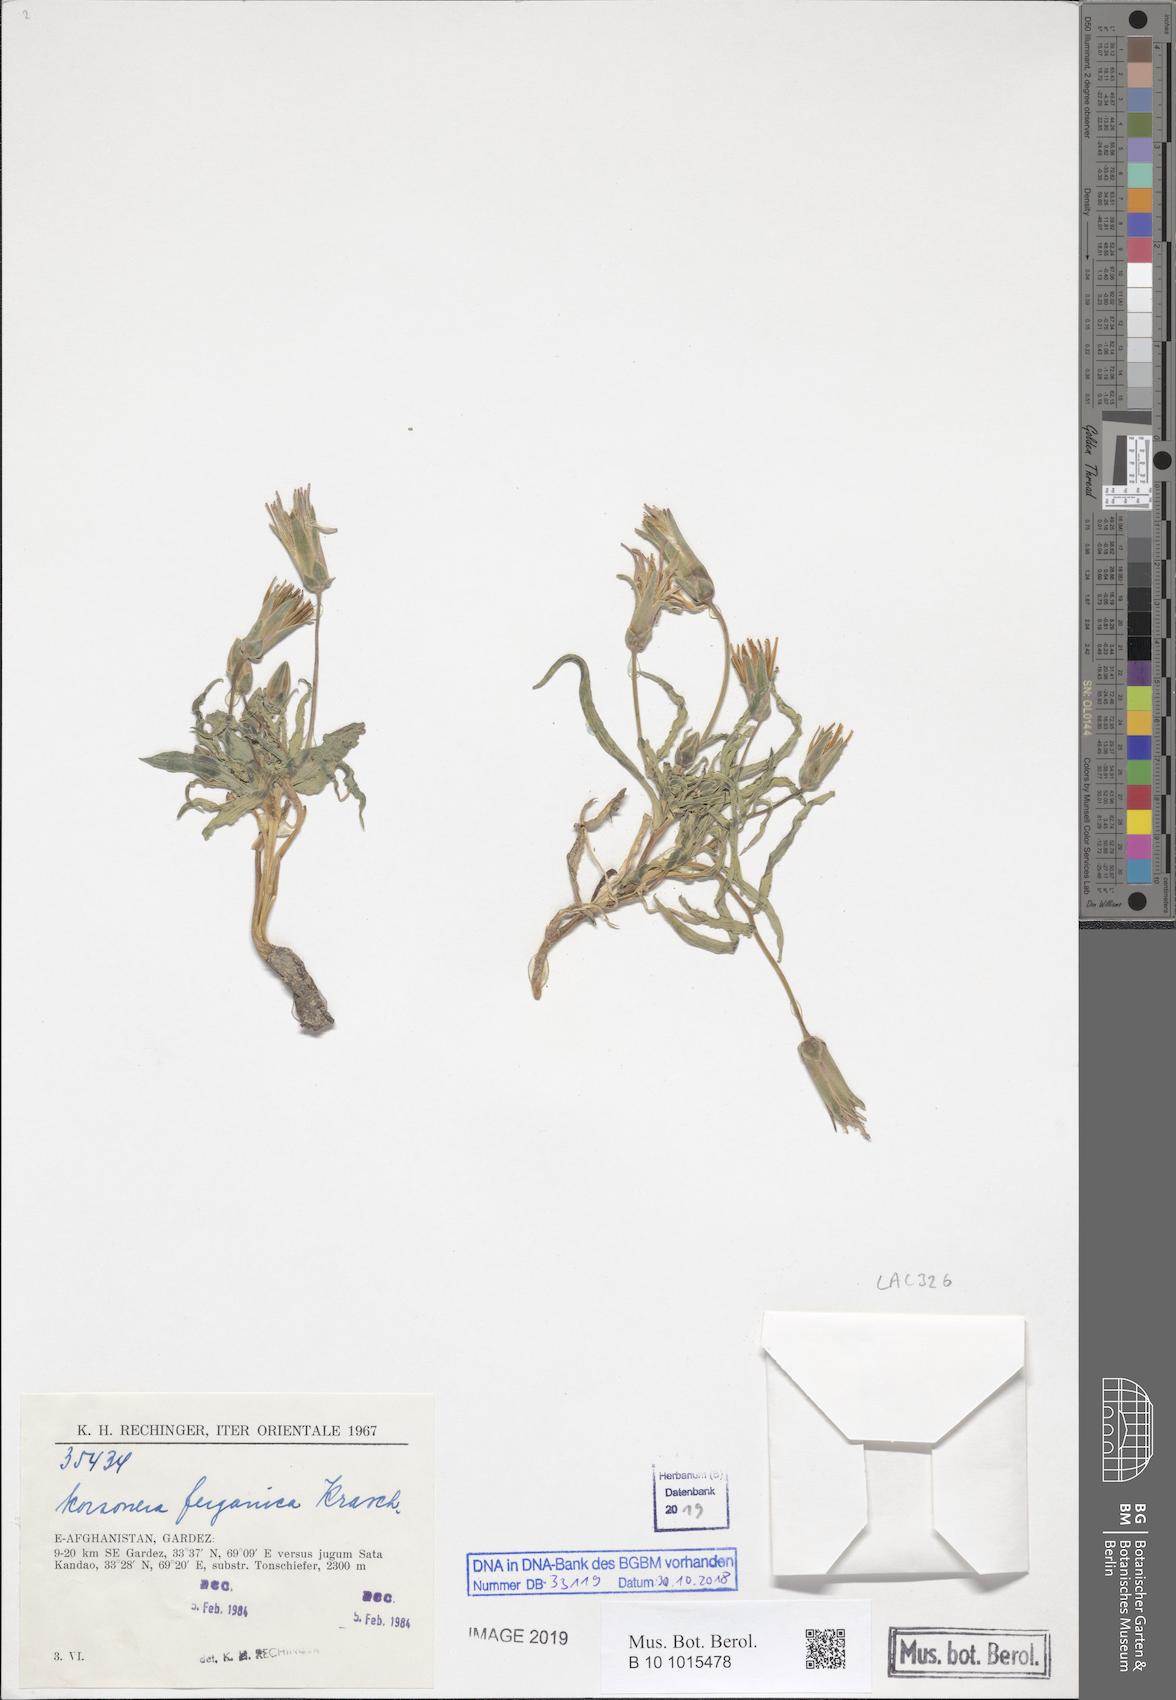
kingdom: Plantae
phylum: Tracheophyta
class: Magnoliopsida
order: Asterales
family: Asteraceae
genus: Pseudopodospermum
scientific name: Pseudopodospermum
